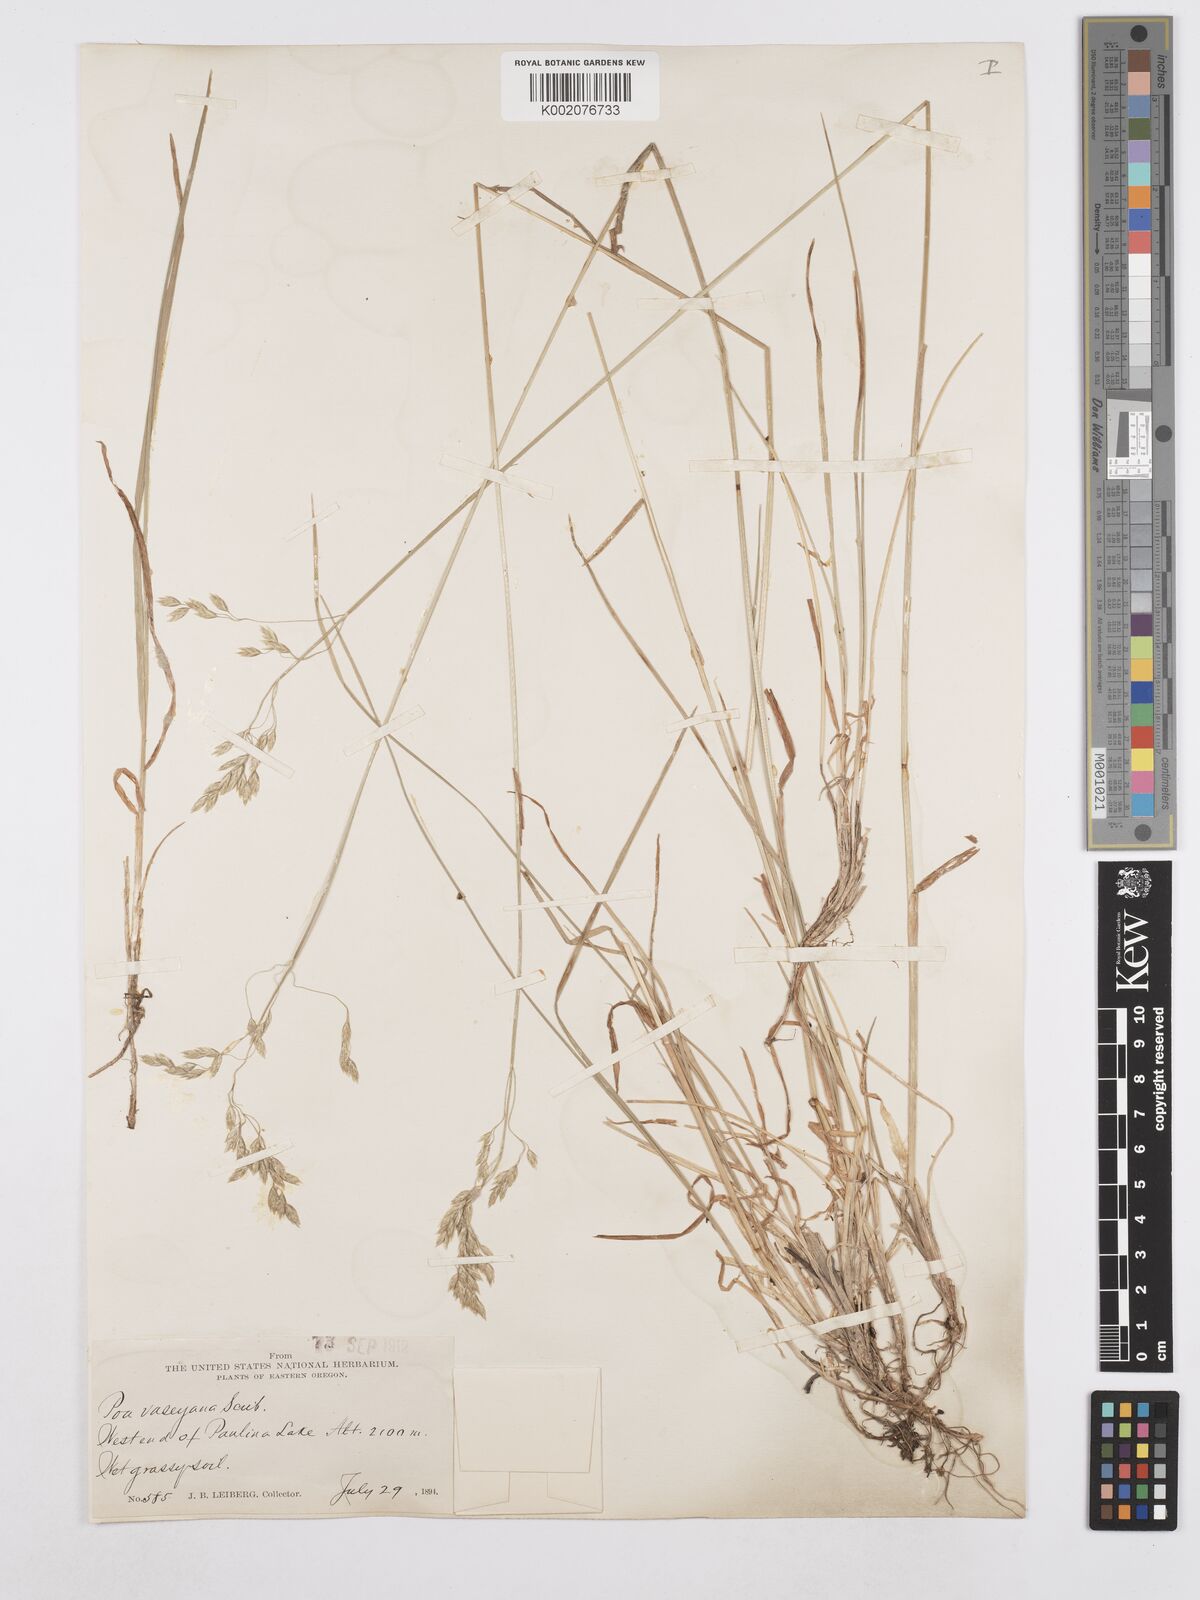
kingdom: Plantae
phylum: Tracheophyta
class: Liliopsida
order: Poales
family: Poaceae
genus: Poa
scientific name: Poa wheeleri
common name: Wheeler's bluegrass
